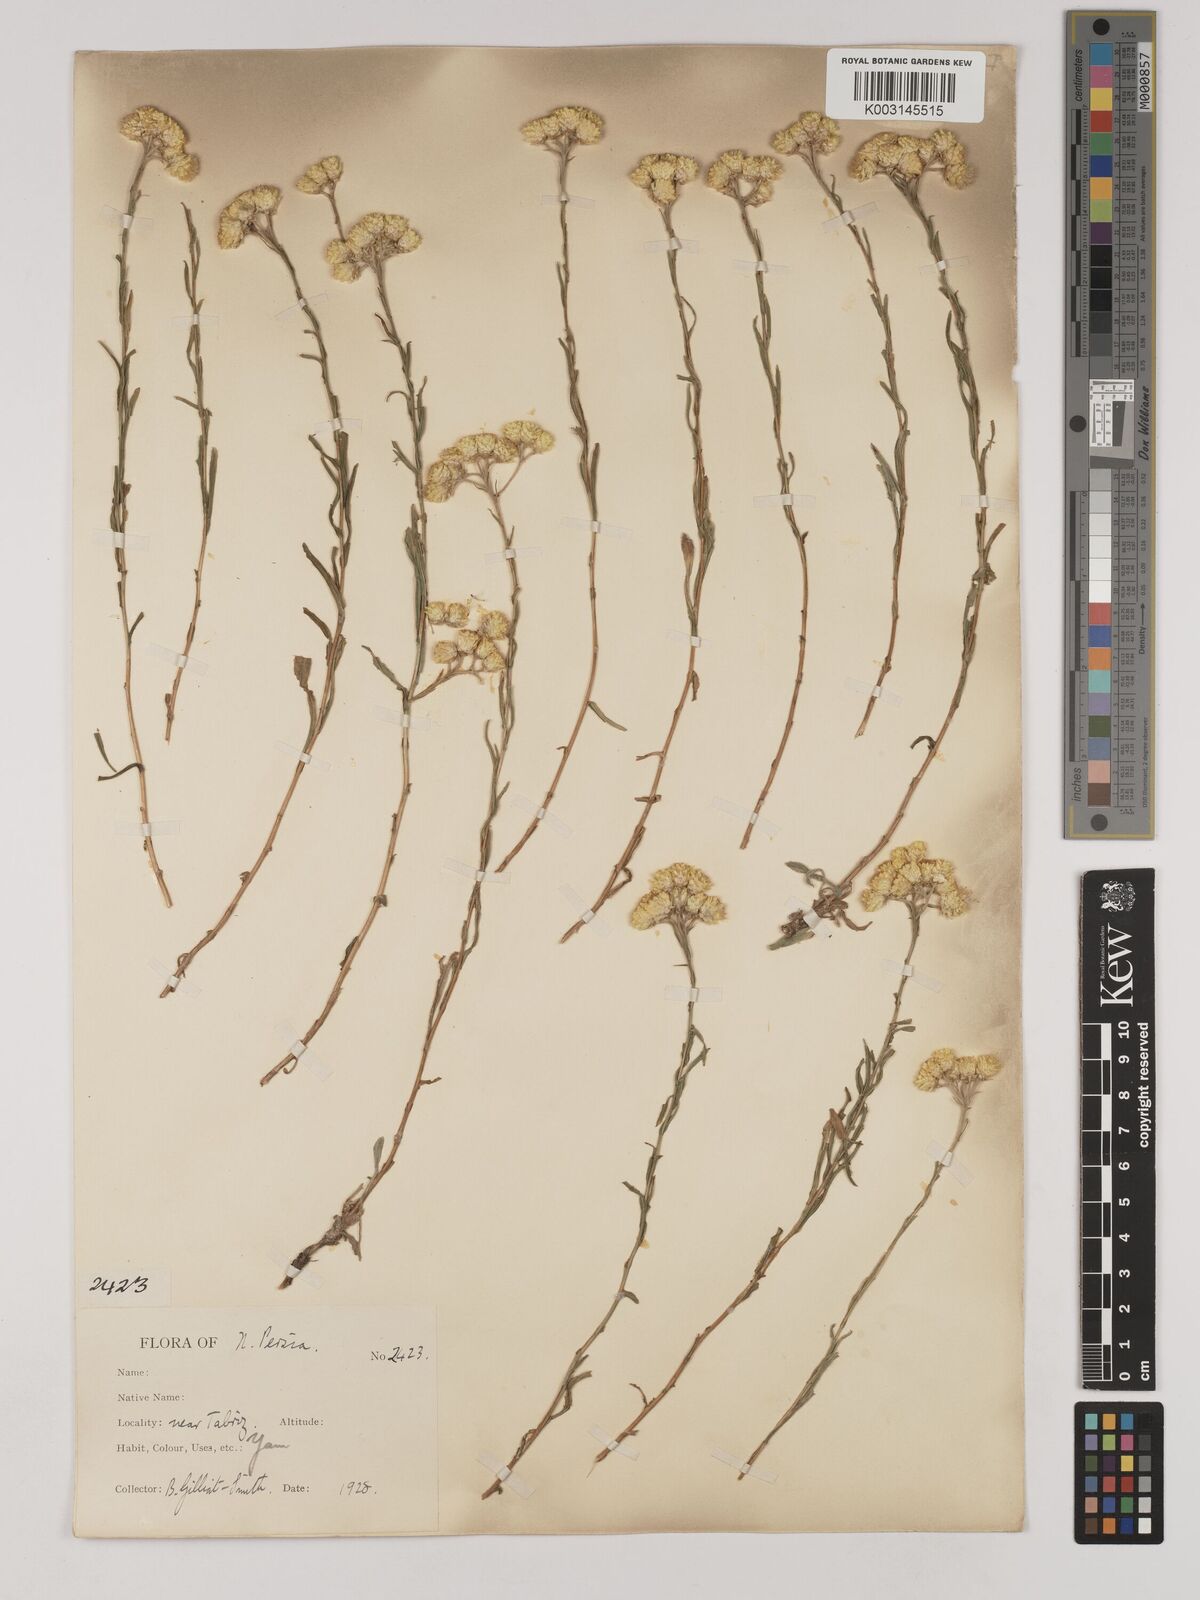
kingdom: Plantae
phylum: Tracheophyta
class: Magnoliopsida
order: Asterales
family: Asteraceae
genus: Helichrysum
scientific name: Helichrysum armenium
